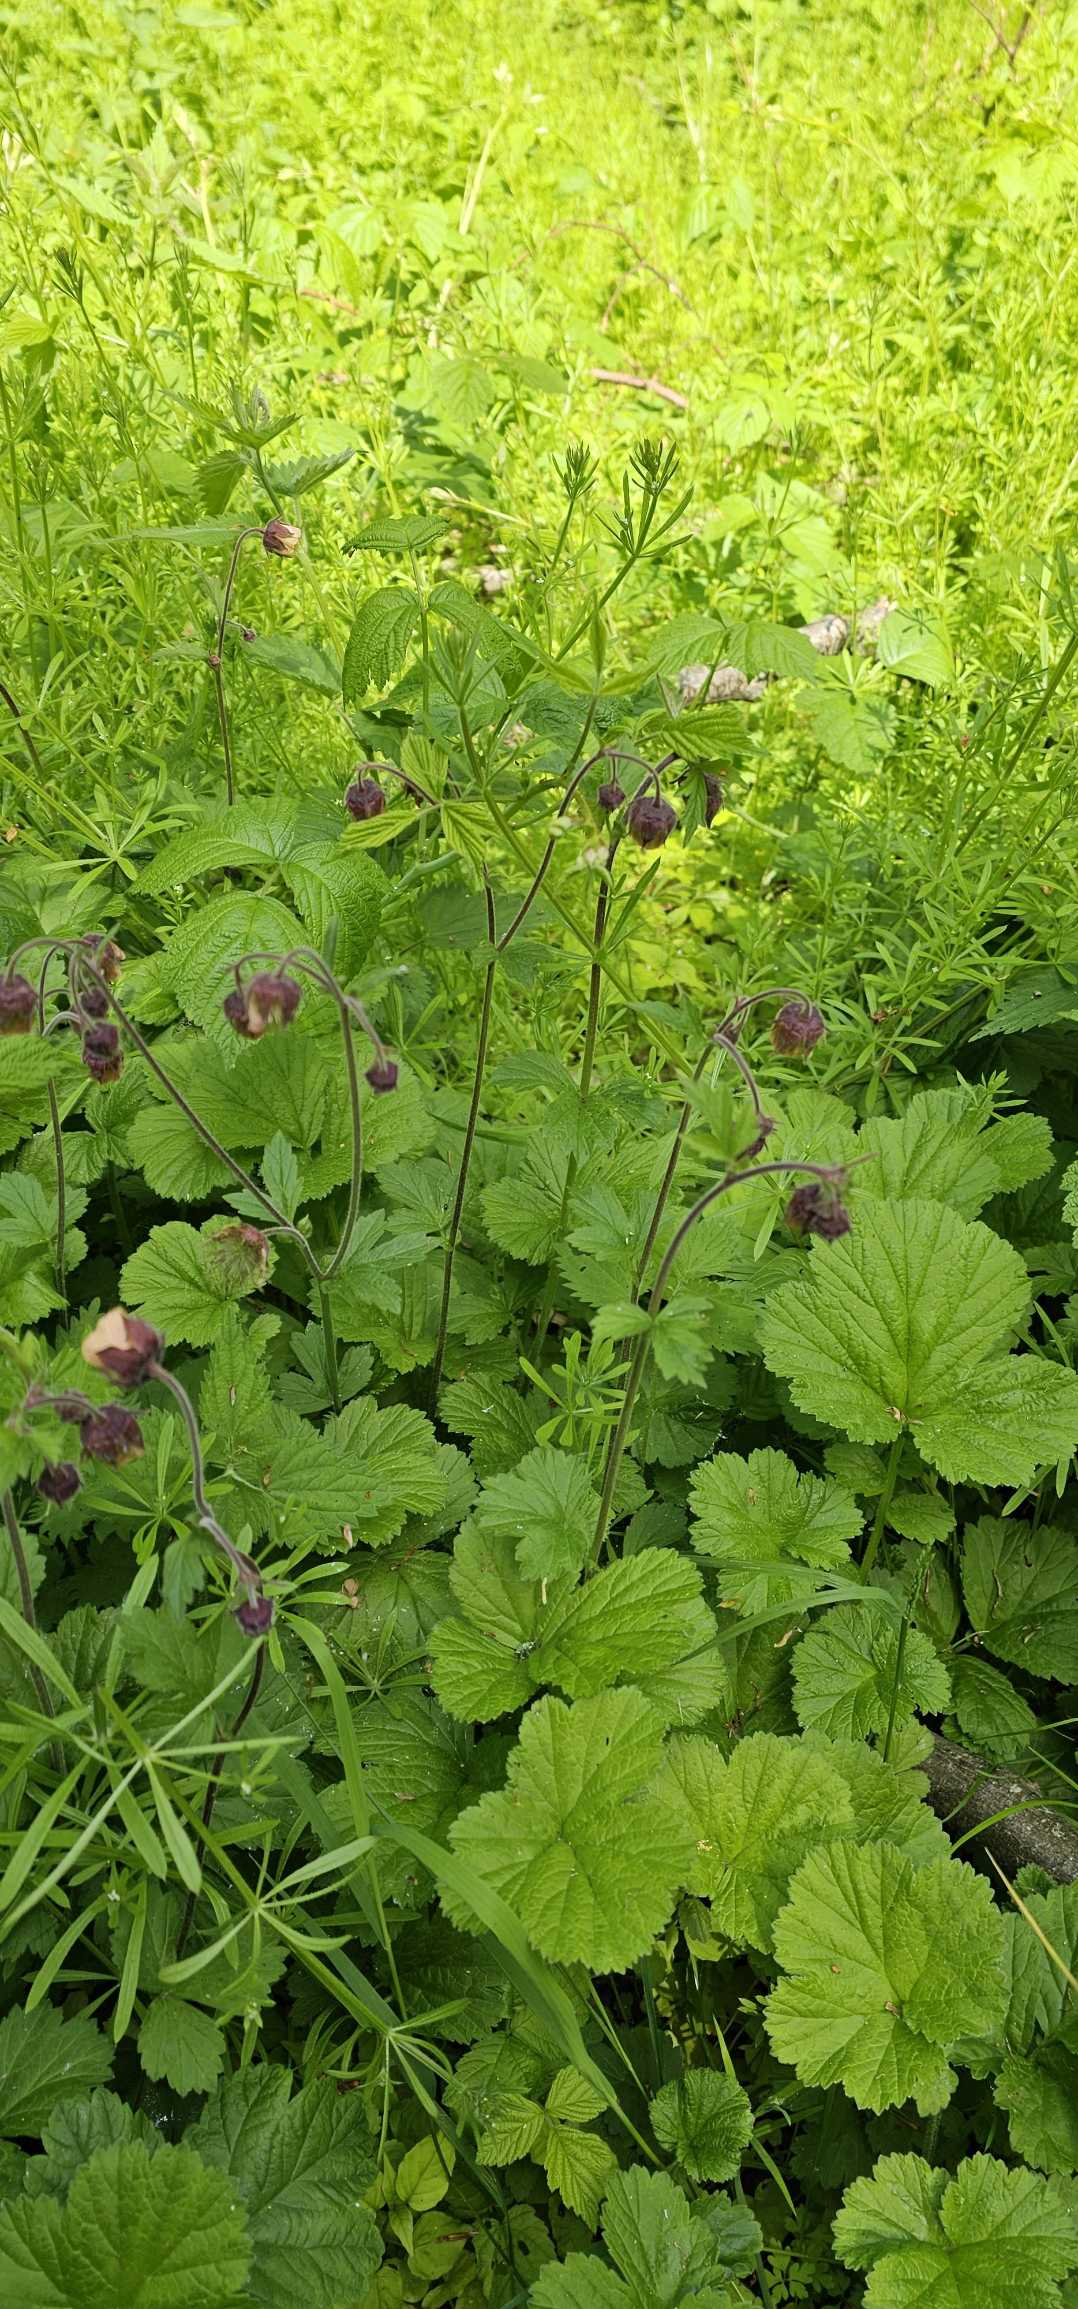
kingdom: Plantae
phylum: Tracheophyta
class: Magnoliopsida
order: Rosales
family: Rosaceae
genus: Geum
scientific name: Geum rivale
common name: Eng-nellikerod
